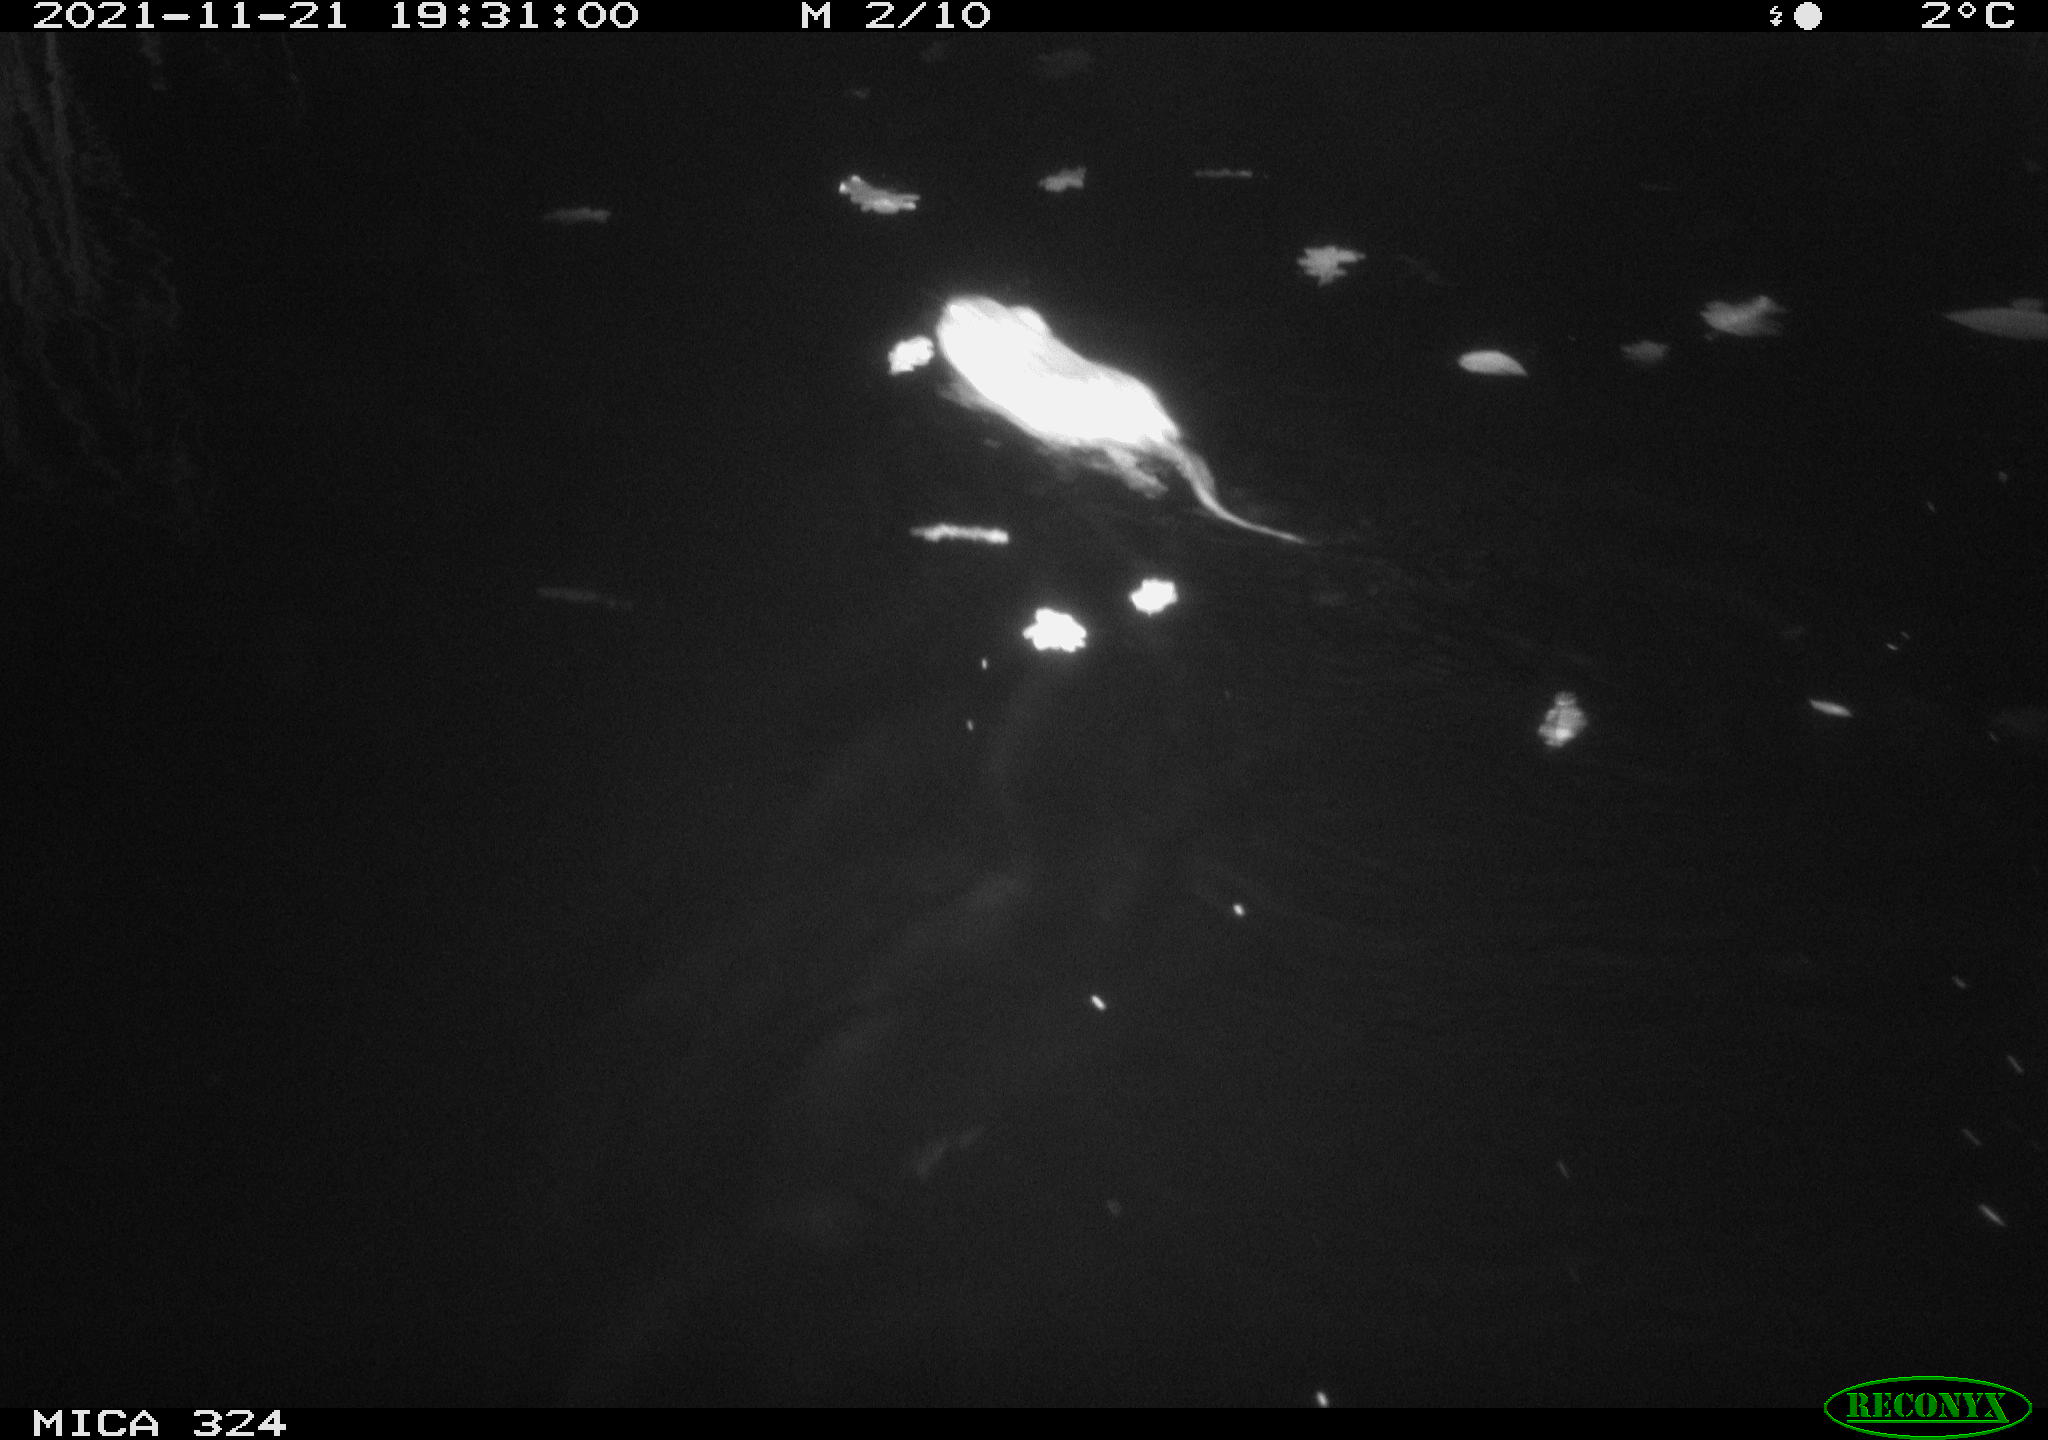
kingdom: Animalia
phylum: Chordata
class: Mammalia
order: Rodentia
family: Cricetidae
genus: Ondatra
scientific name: Ondatra zibethicus
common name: Muskrat
